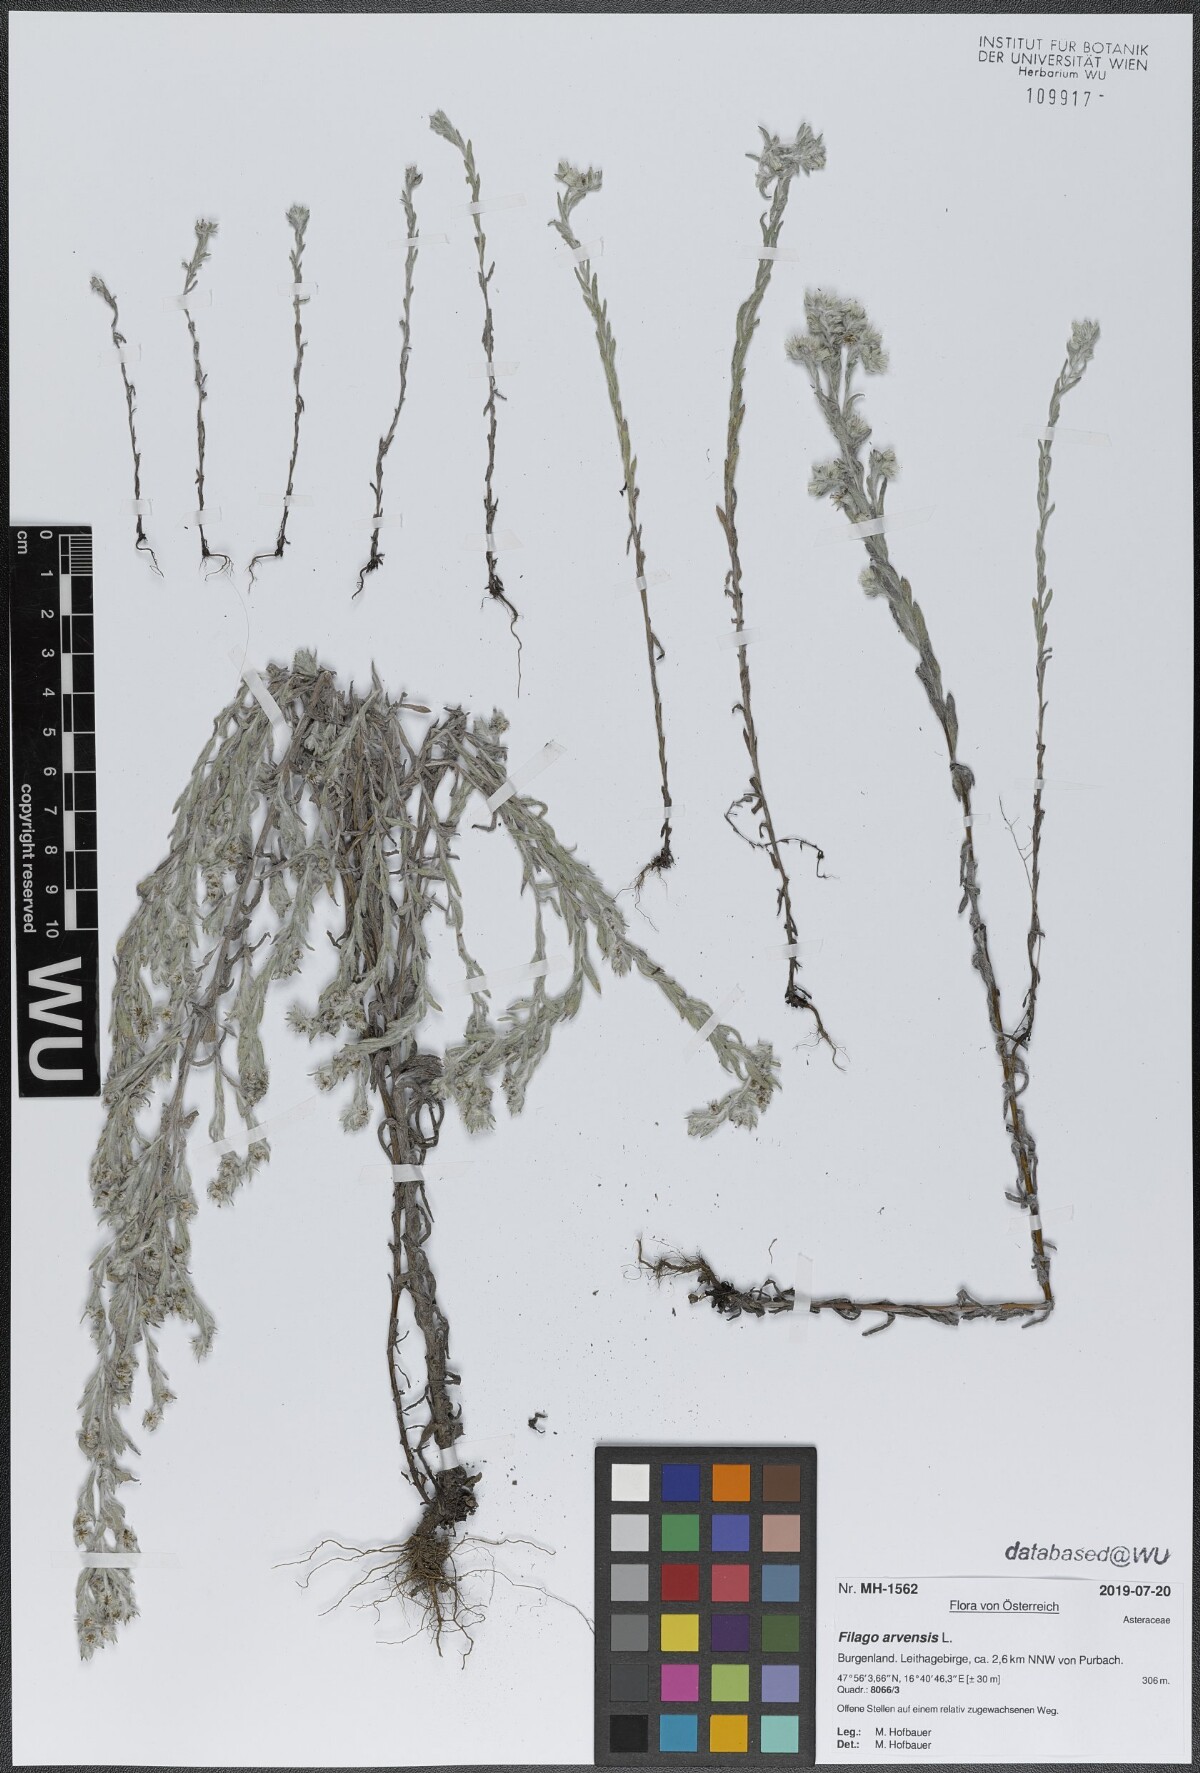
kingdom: Plantae
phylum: Tracheophyta
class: Magnoliopsida
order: Asterales
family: Asteraceae
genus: Filago
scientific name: Filago arvensis
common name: Field cudweed
